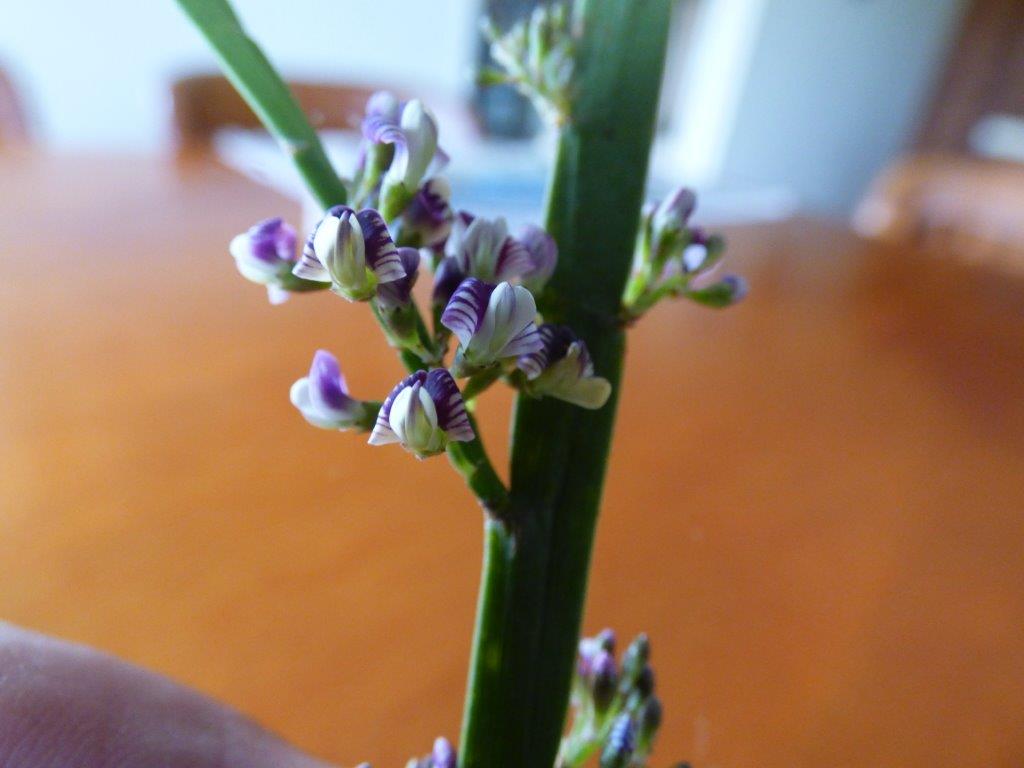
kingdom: Plantae
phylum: Tracheophyta
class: Magnoliopsida
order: Fabales
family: Fabaceae
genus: Carmichaelia
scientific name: Carmichaelia australis
